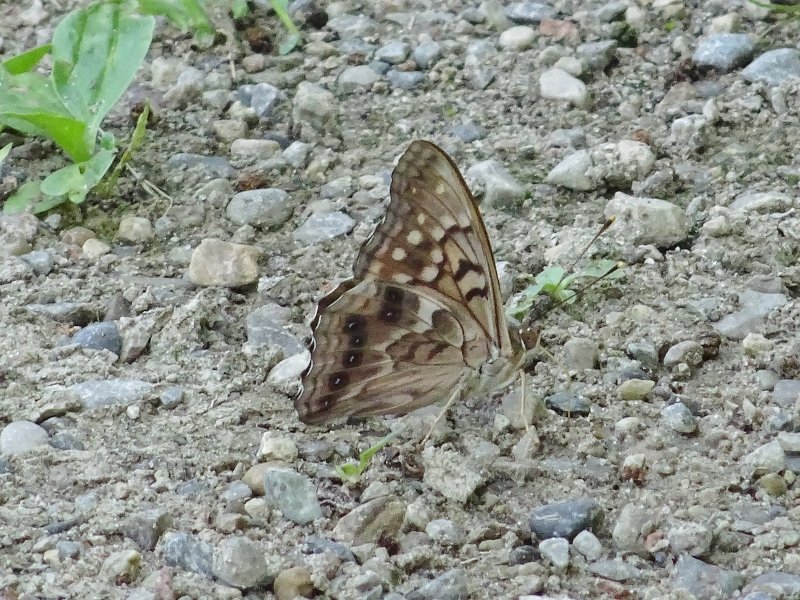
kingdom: Animalia
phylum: Arthropoda
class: Insecta
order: Lepidoptera
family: Nymphalidae
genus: Asterocampa
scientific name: Asterocampa clyton
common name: Tawny Emperor
